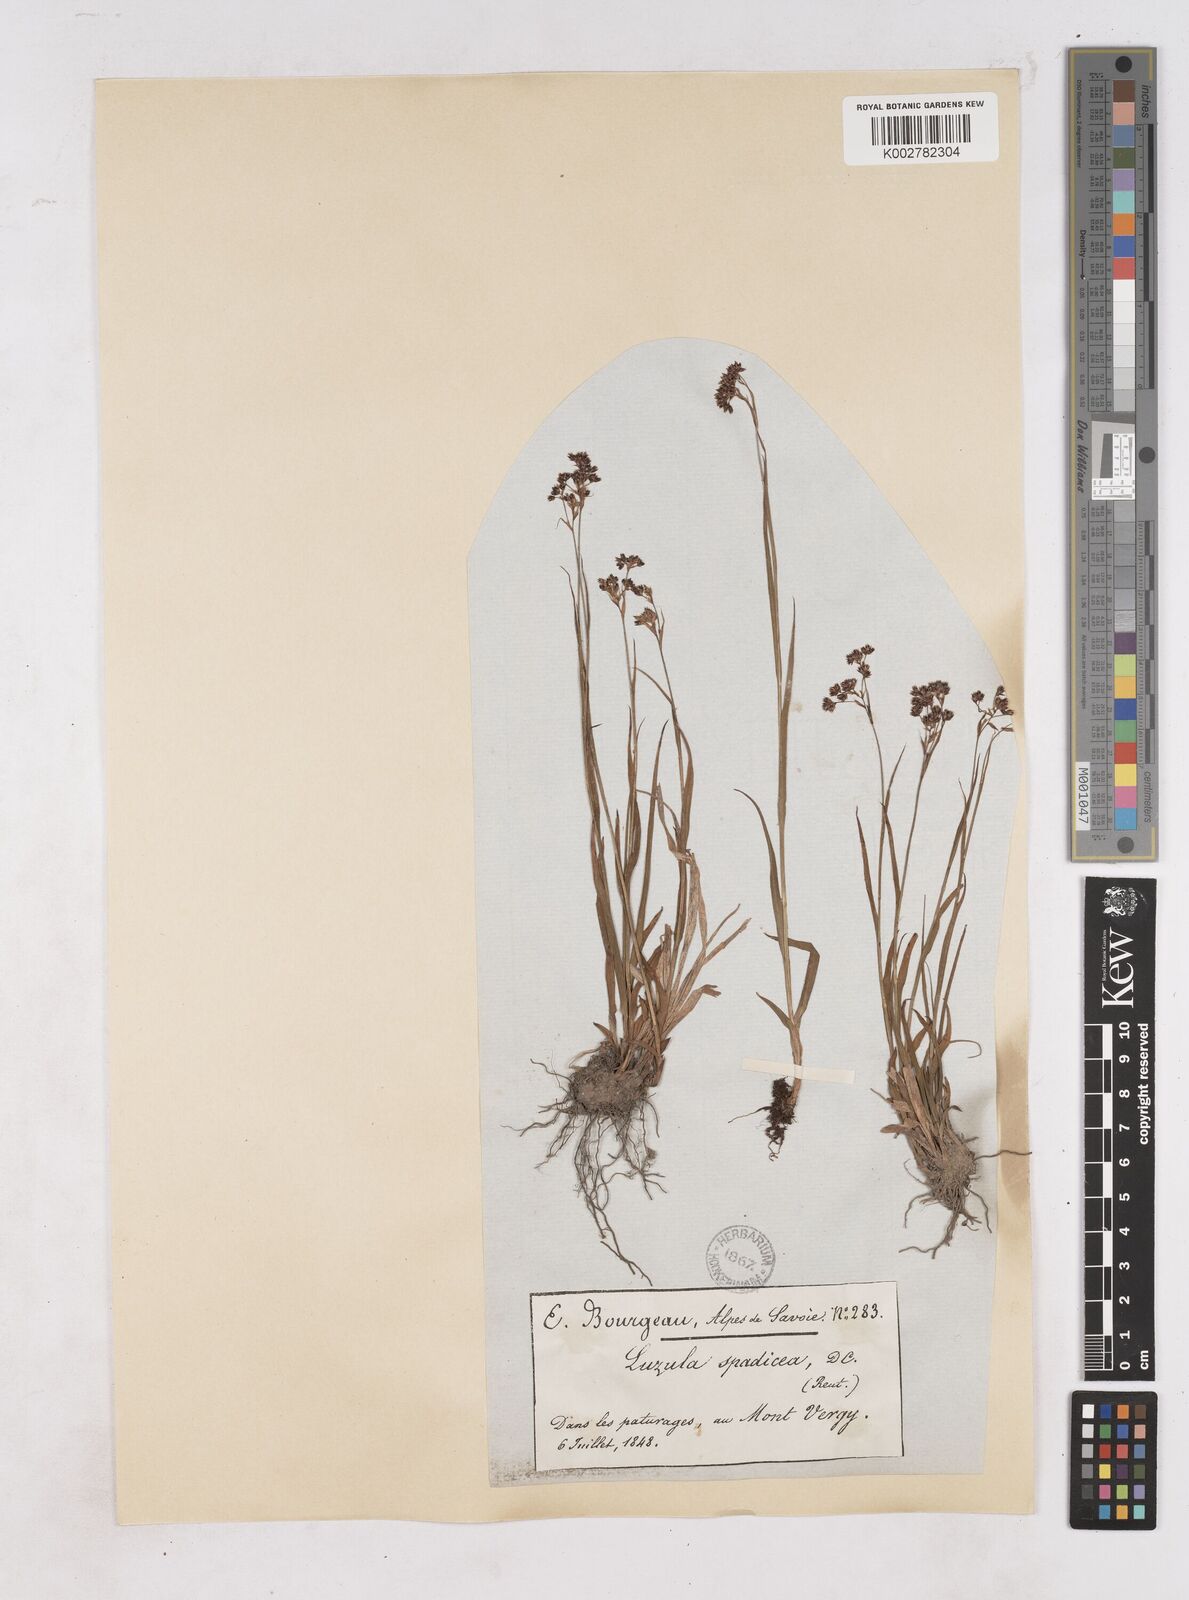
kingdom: Plantae
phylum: Tracheophyta
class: Liliopsida
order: Poales
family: Juncaceae
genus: Luzula
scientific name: Luzula alpinopilosa
